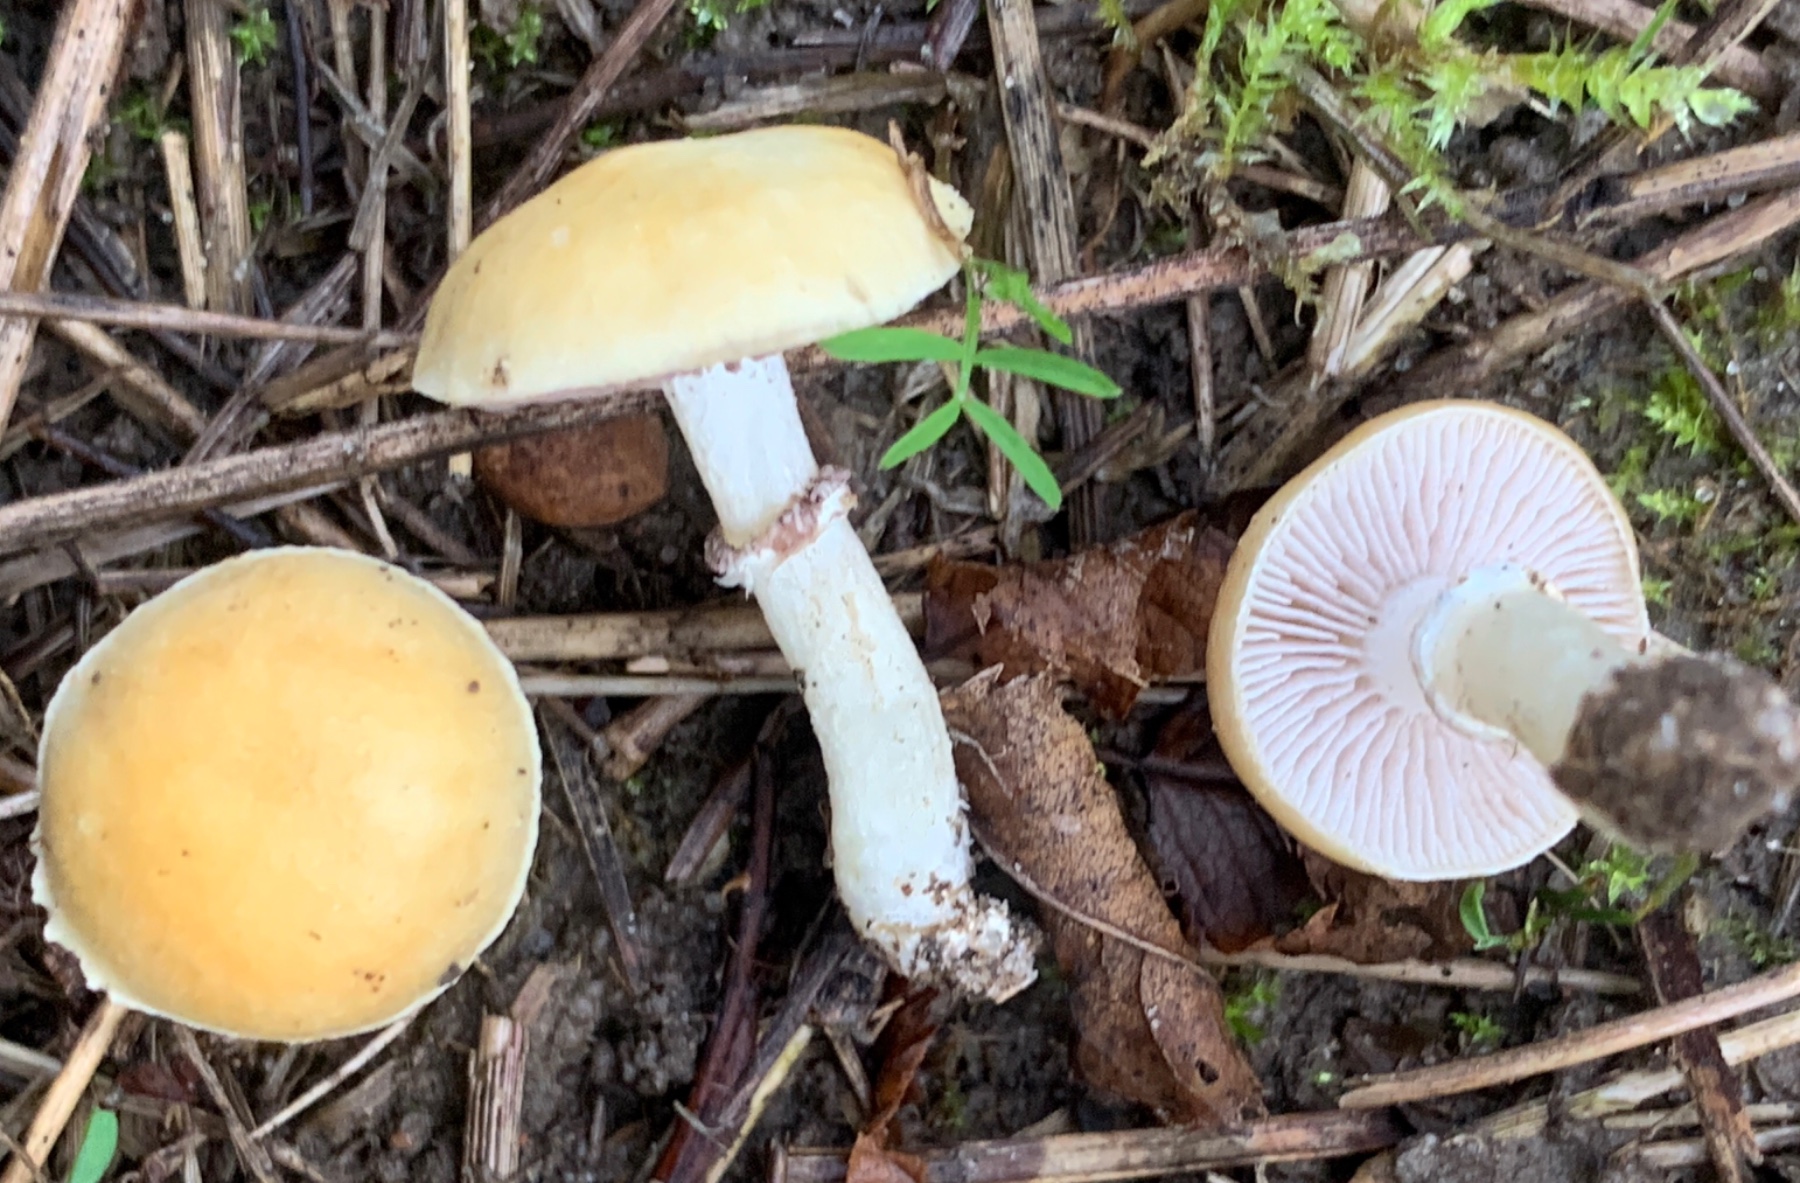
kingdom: Fungi
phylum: Basidiomycota
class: Agaricomycetes
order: Agaricales
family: Hymenogastraceae
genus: Psilocybe
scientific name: Psilocybe coronilla
